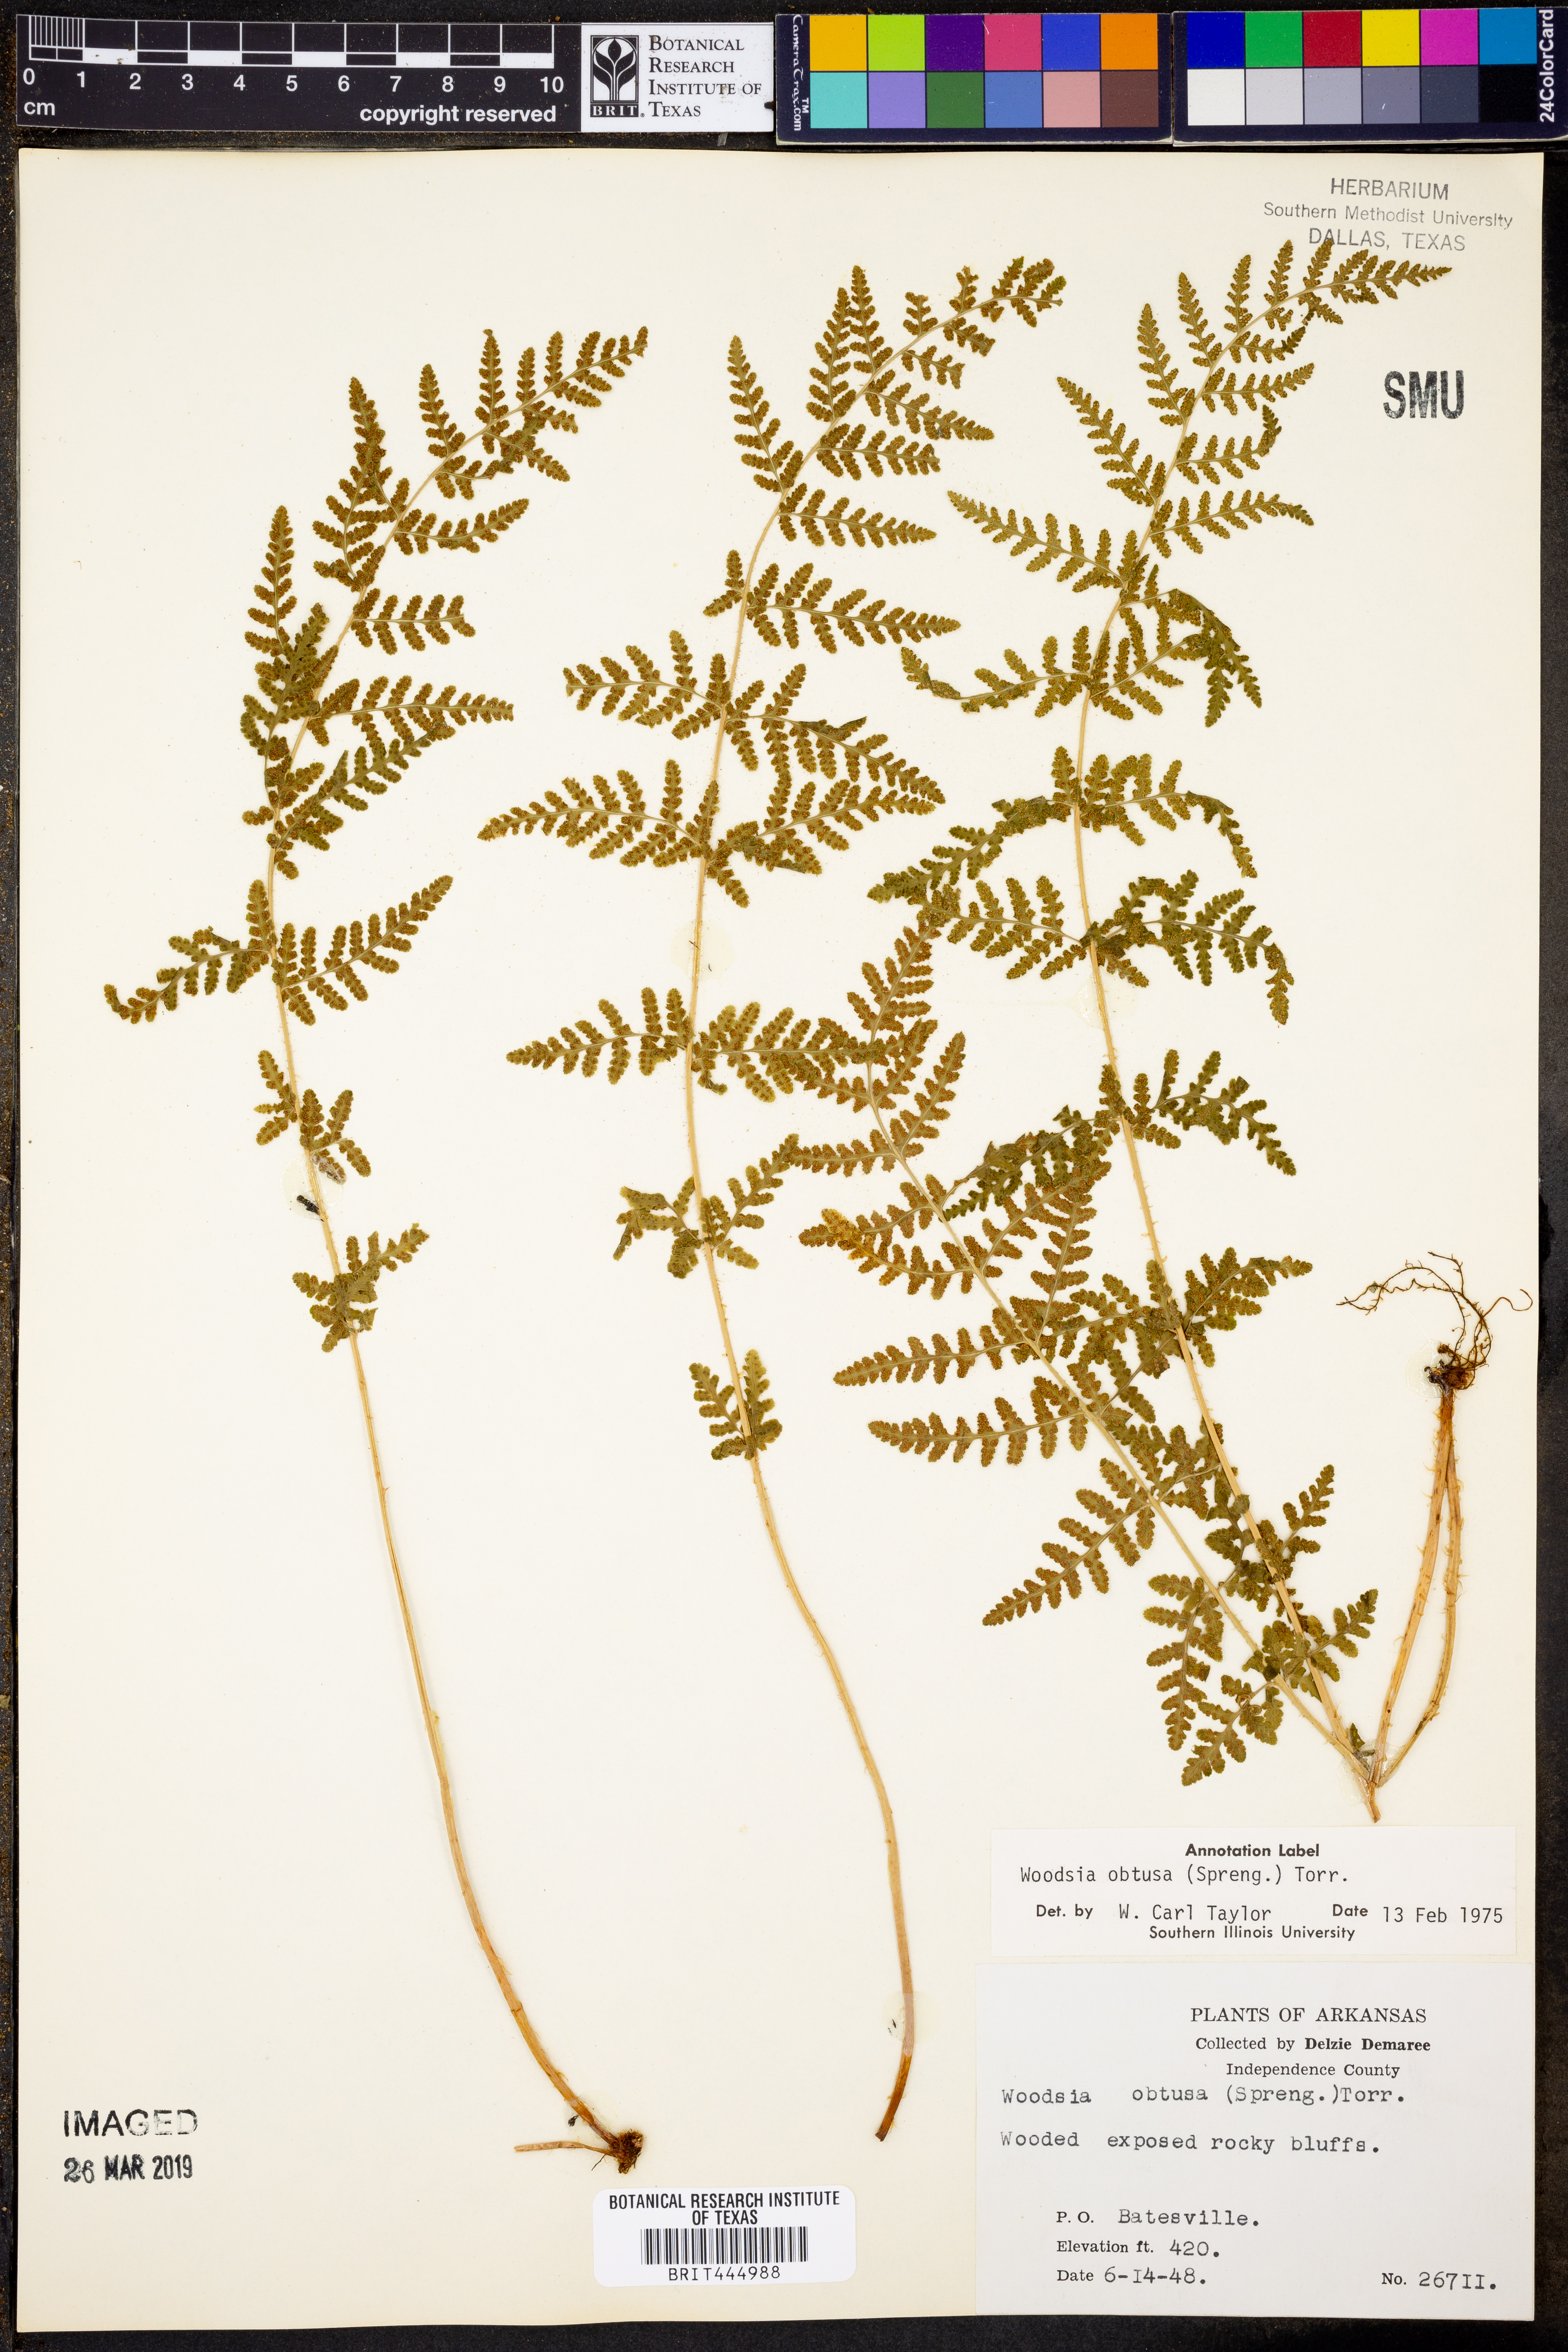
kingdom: Plantae
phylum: Tracheophyta
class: Polypodiopsida
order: Polypodiales
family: Woodsiaceae
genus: Physematium
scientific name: Physematium obtusum
